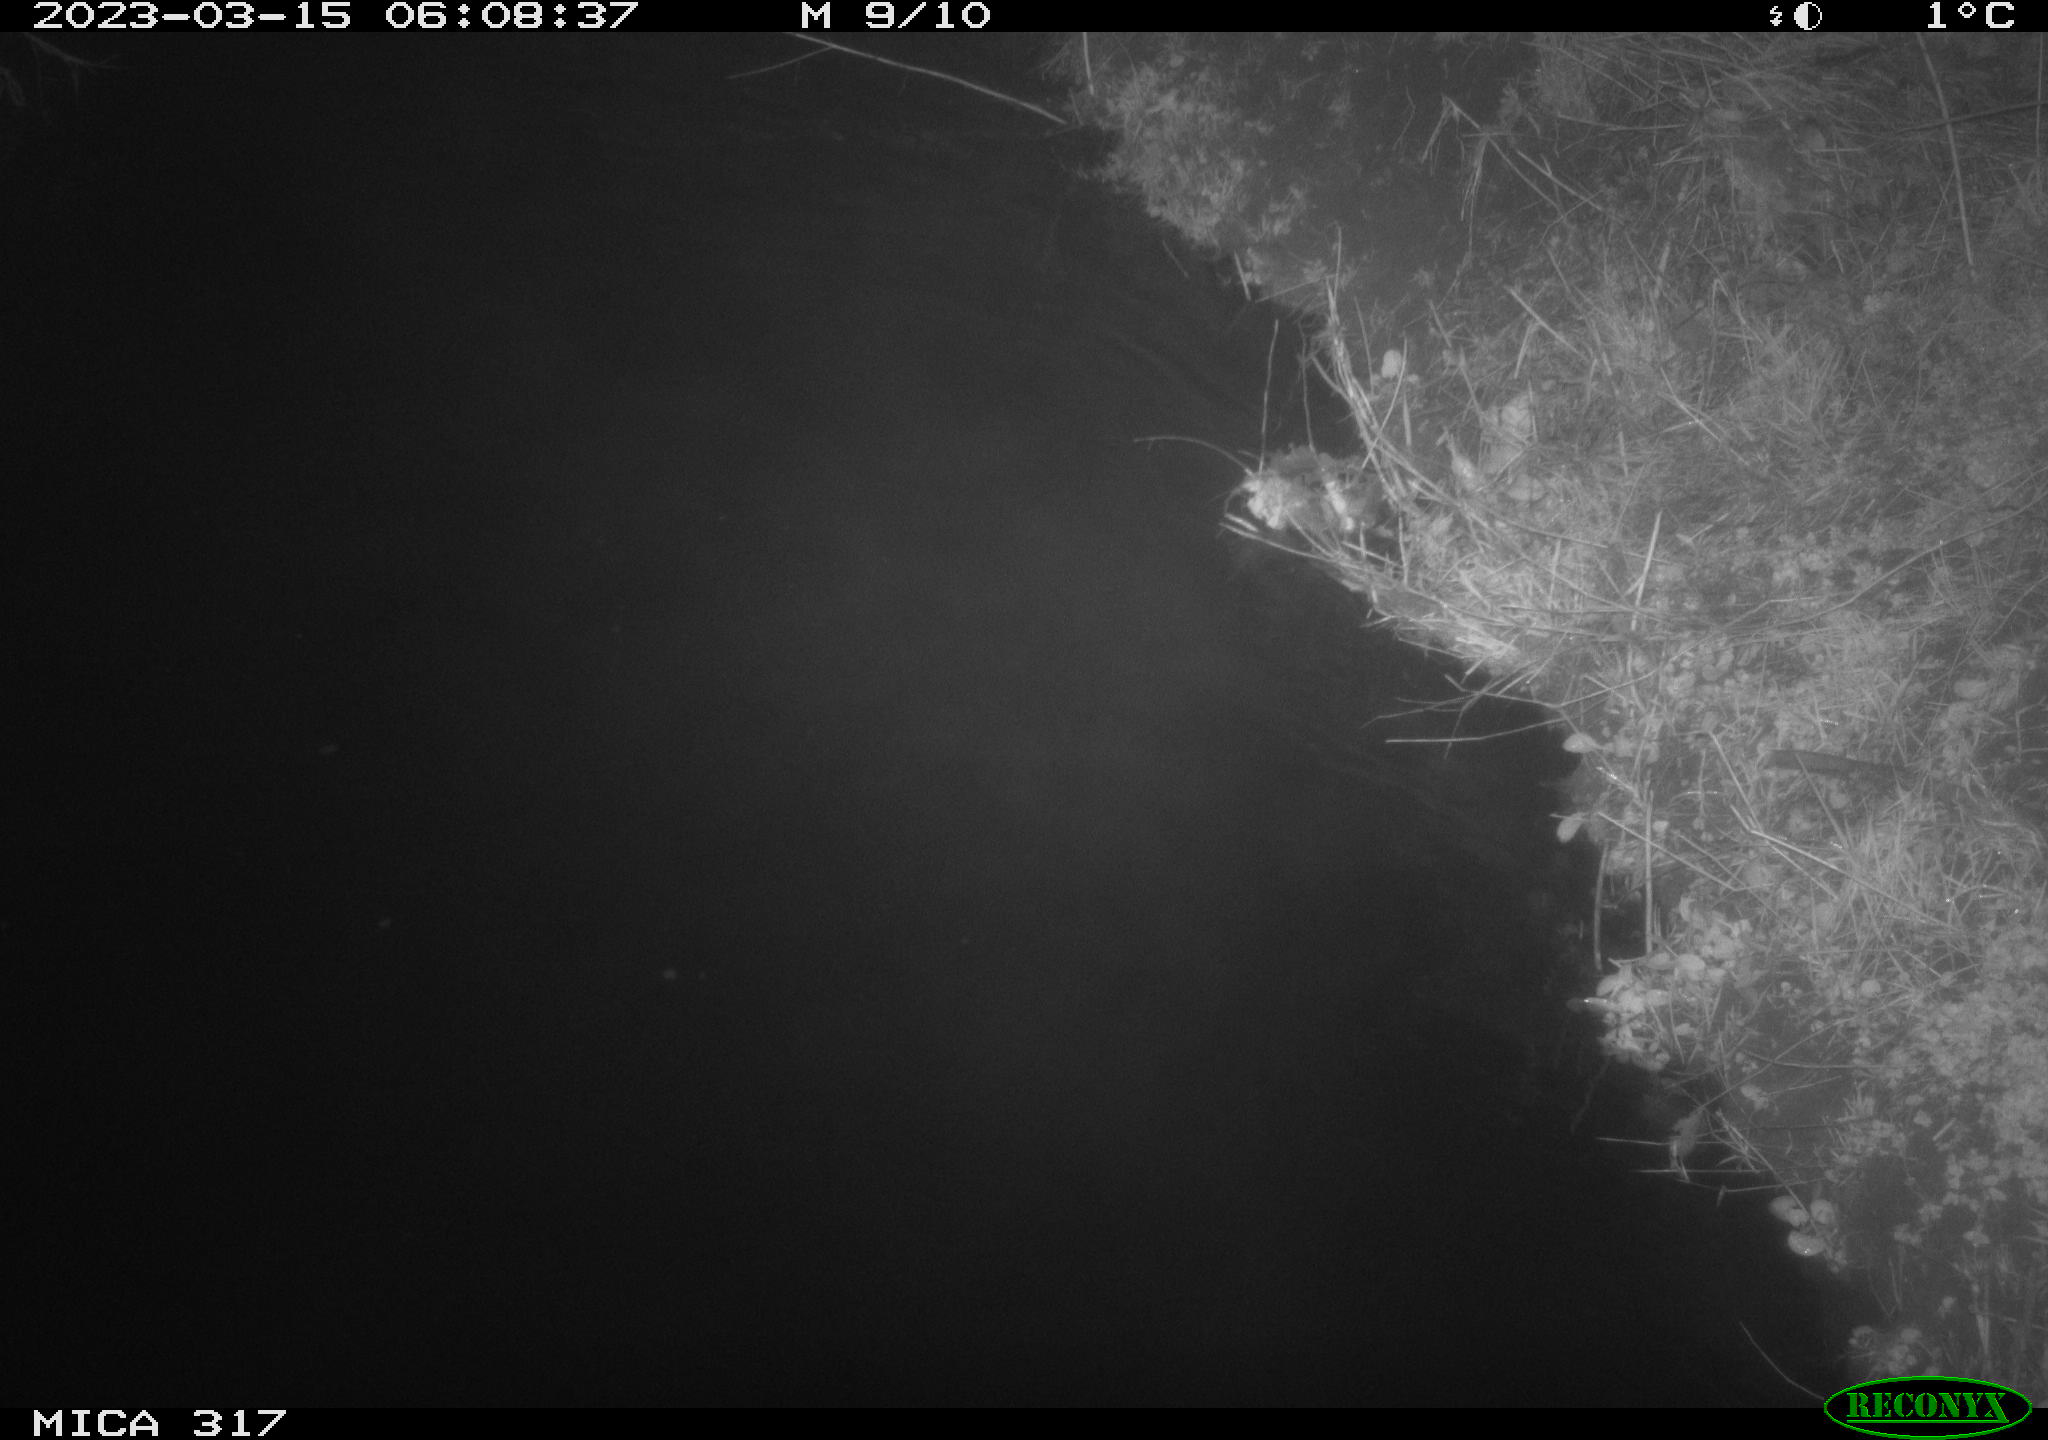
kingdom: Animalia
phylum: Chordata
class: Aves
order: Anseriformes
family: Anatidae
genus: Anas
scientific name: Anas
